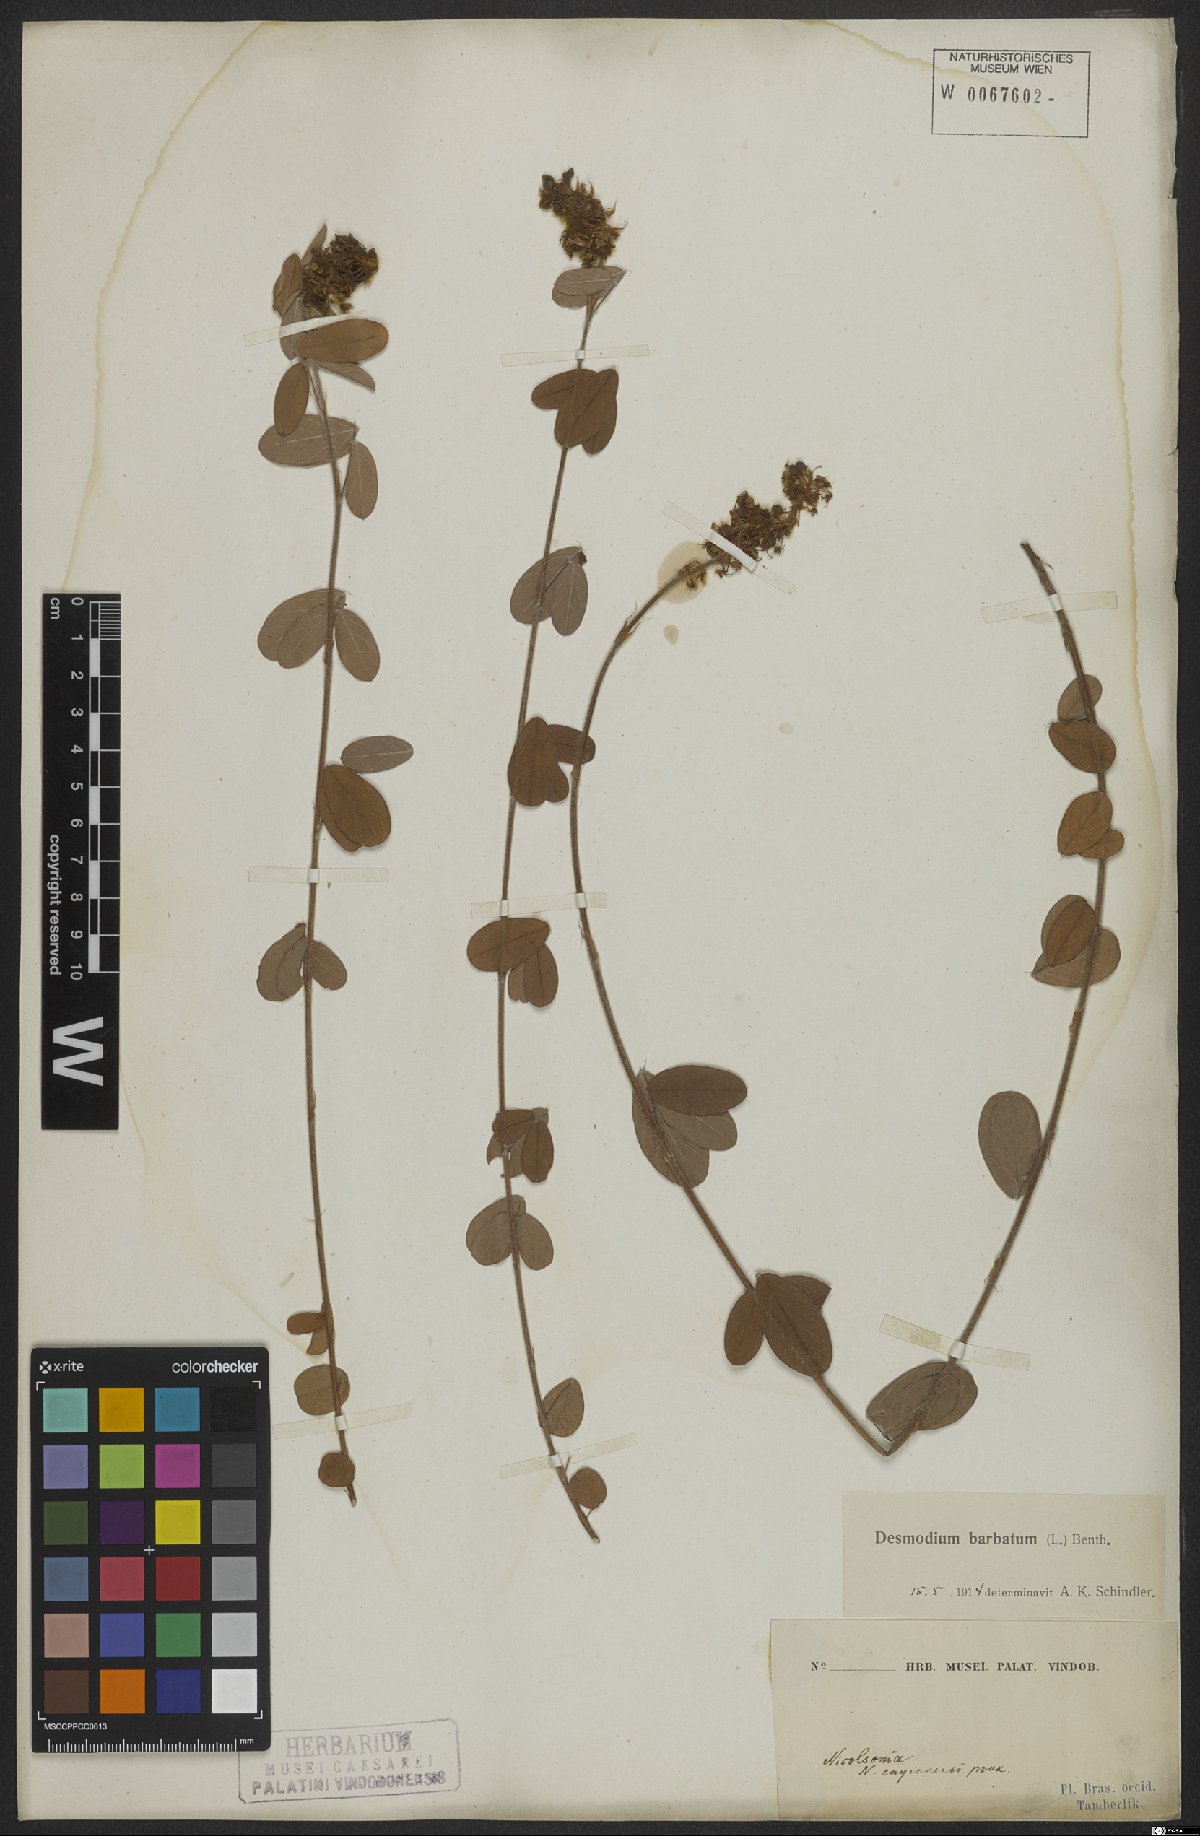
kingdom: Plantae
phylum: Tracheophyta
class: Magnoliopsida
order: Fabales
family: Fabaceae
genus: Grona
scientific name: Grona barbata
